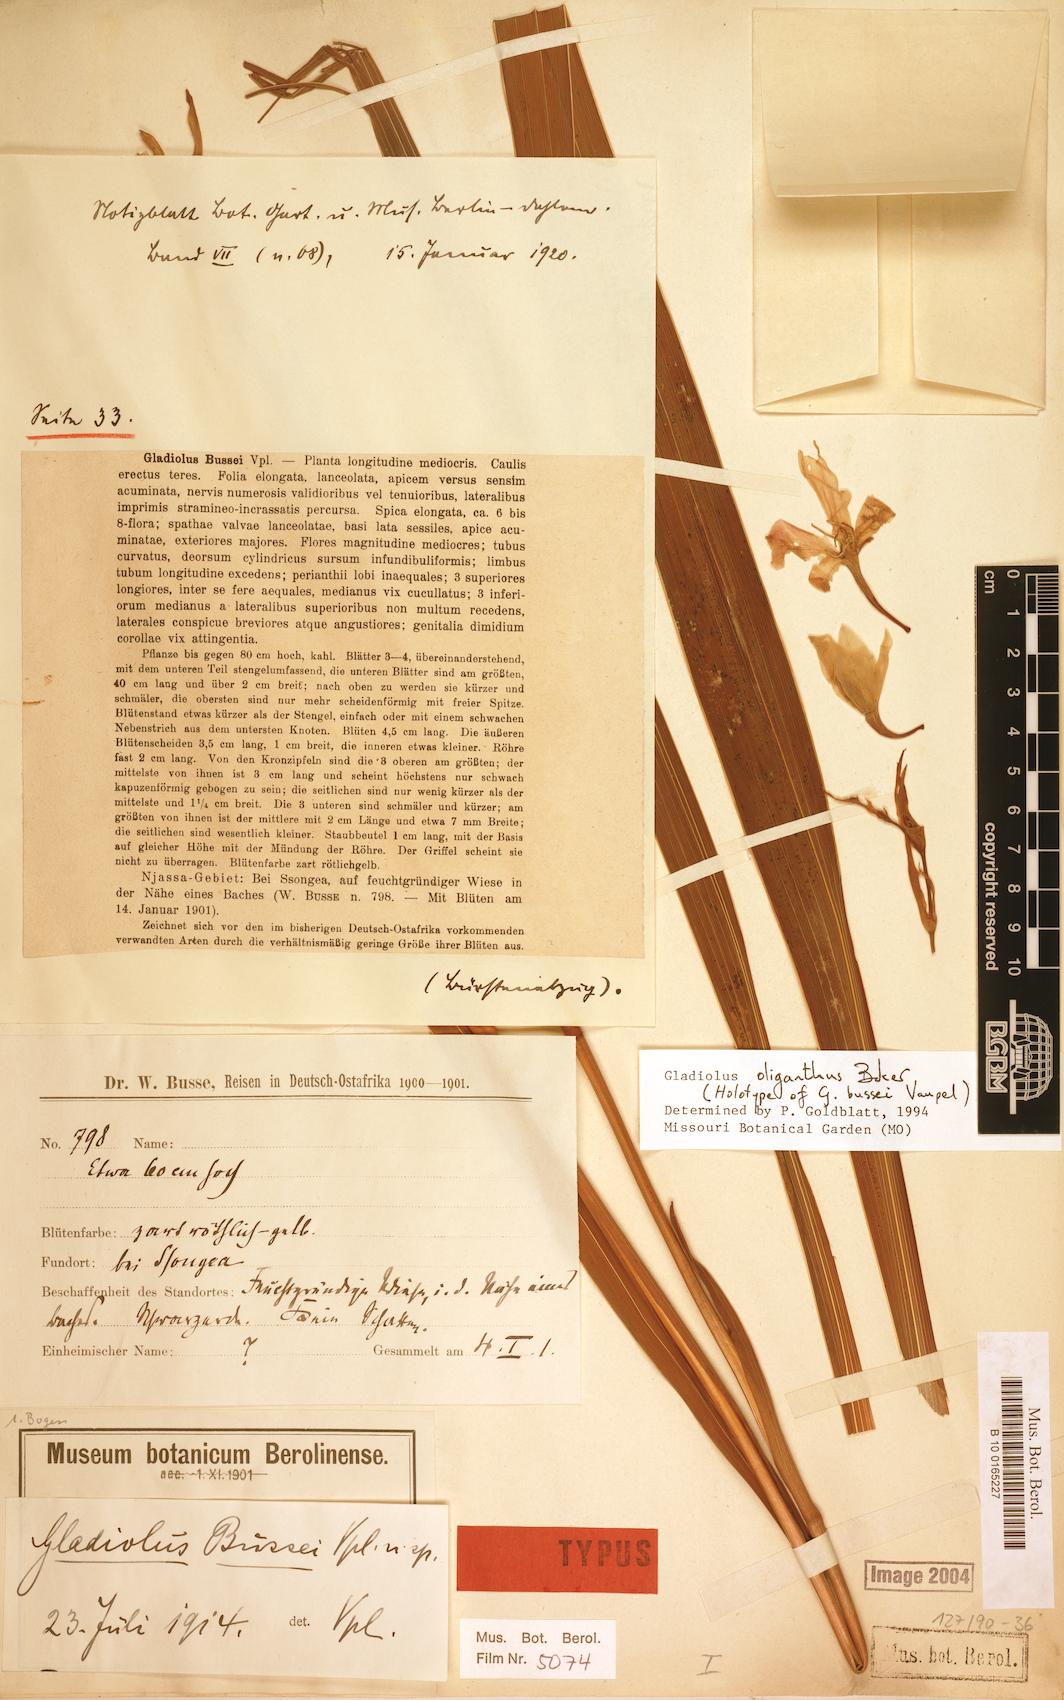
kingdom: Plantae
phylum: Tracheophyta
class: Liliopsida
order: Asparagales
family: Iridaceae
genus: Gladiolus
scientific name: Gladiolus oliganthus
